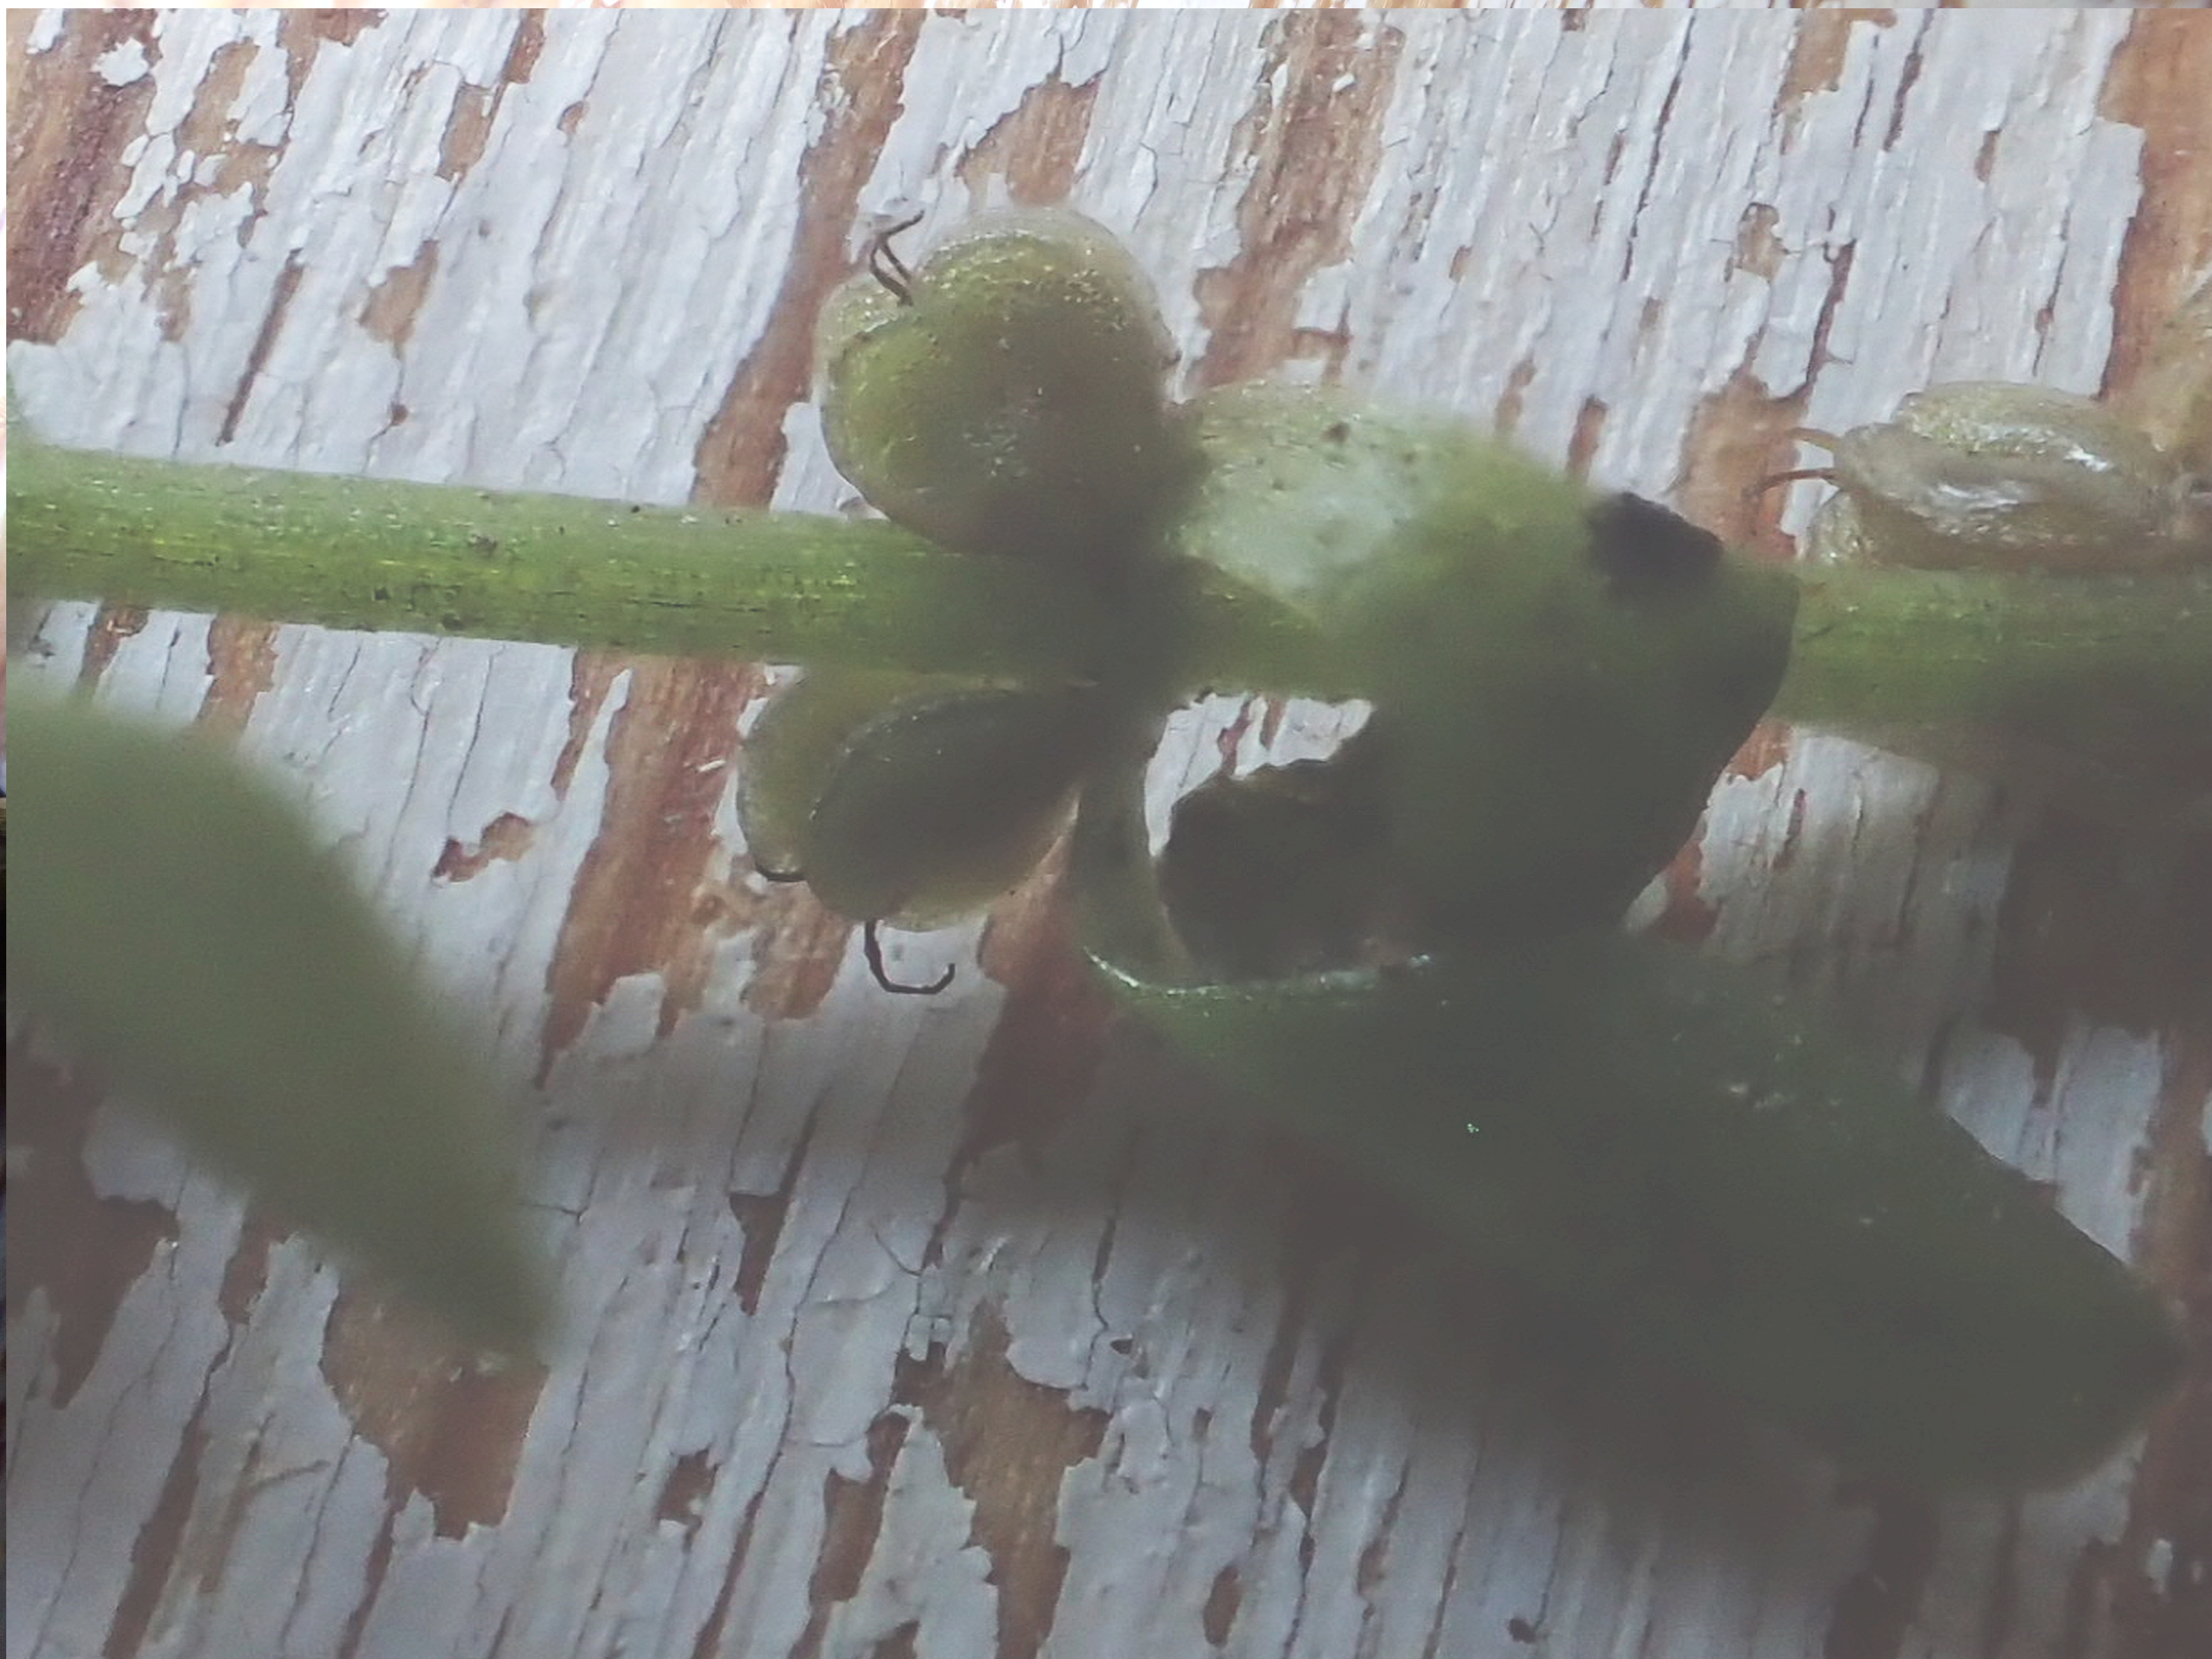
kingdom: Plantae
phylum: Tracheophyta
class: Magnoliopsida
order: Lamiales
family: Plantaginaceae
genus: Callitriche
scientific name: Callitriche stagnalis
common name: Storfrugtet vandstjerne
